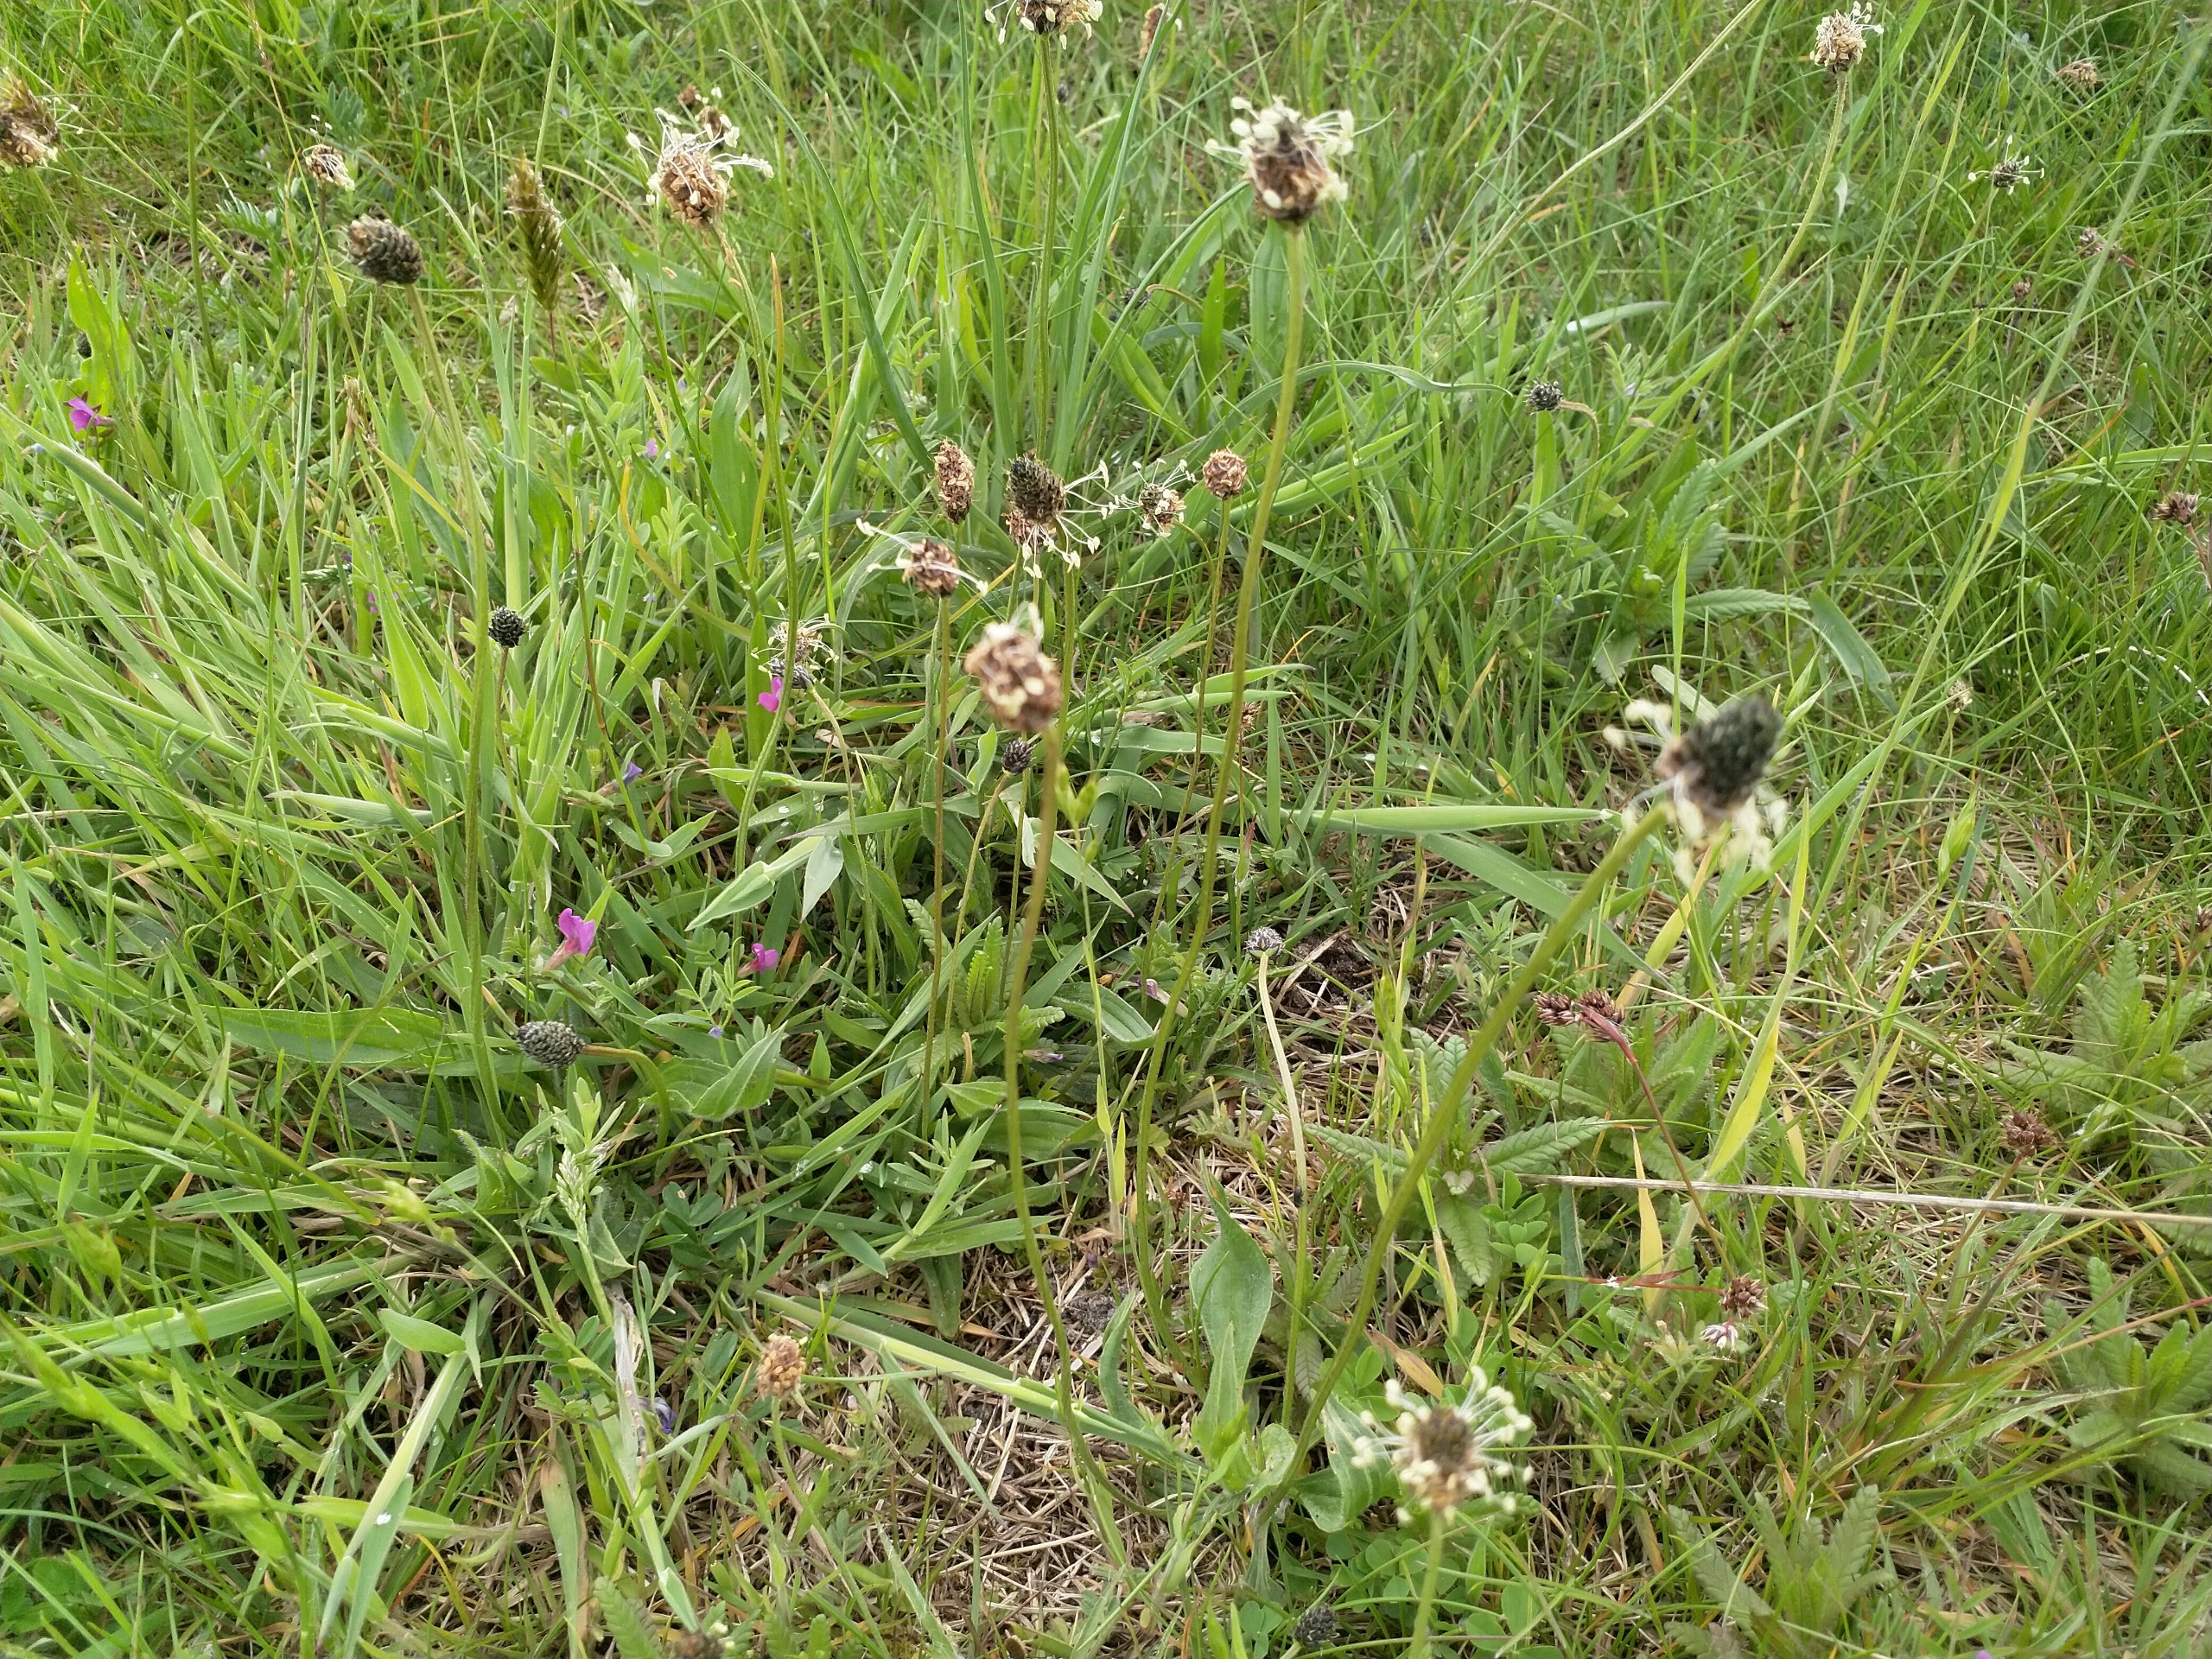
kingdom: Plantae
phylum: Tracheophyta
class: Magnoliopsida
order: Lamiales
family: Plantaginaceae
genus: Plantago
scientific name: Plantago lanceolata
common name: Lancet-vejbred
